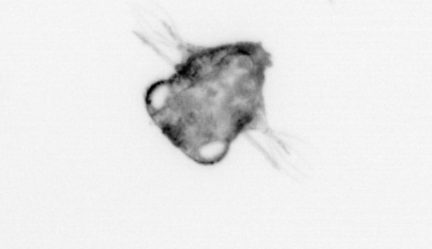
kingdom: Animalia
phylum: Arthropoda
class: Malacostraca
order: Decapoda
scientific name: Decapoda
